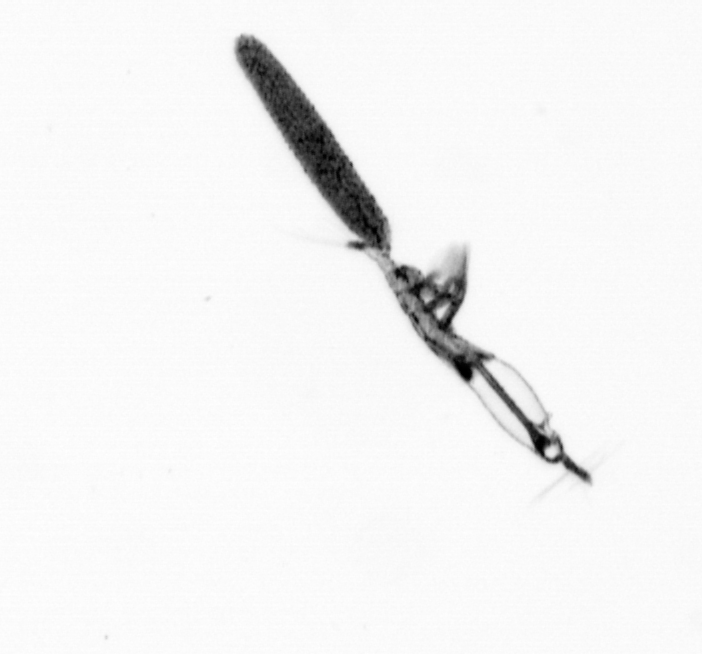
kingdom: Animalia
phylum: Arthropoda
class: Copepoda
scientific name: Copepoda
